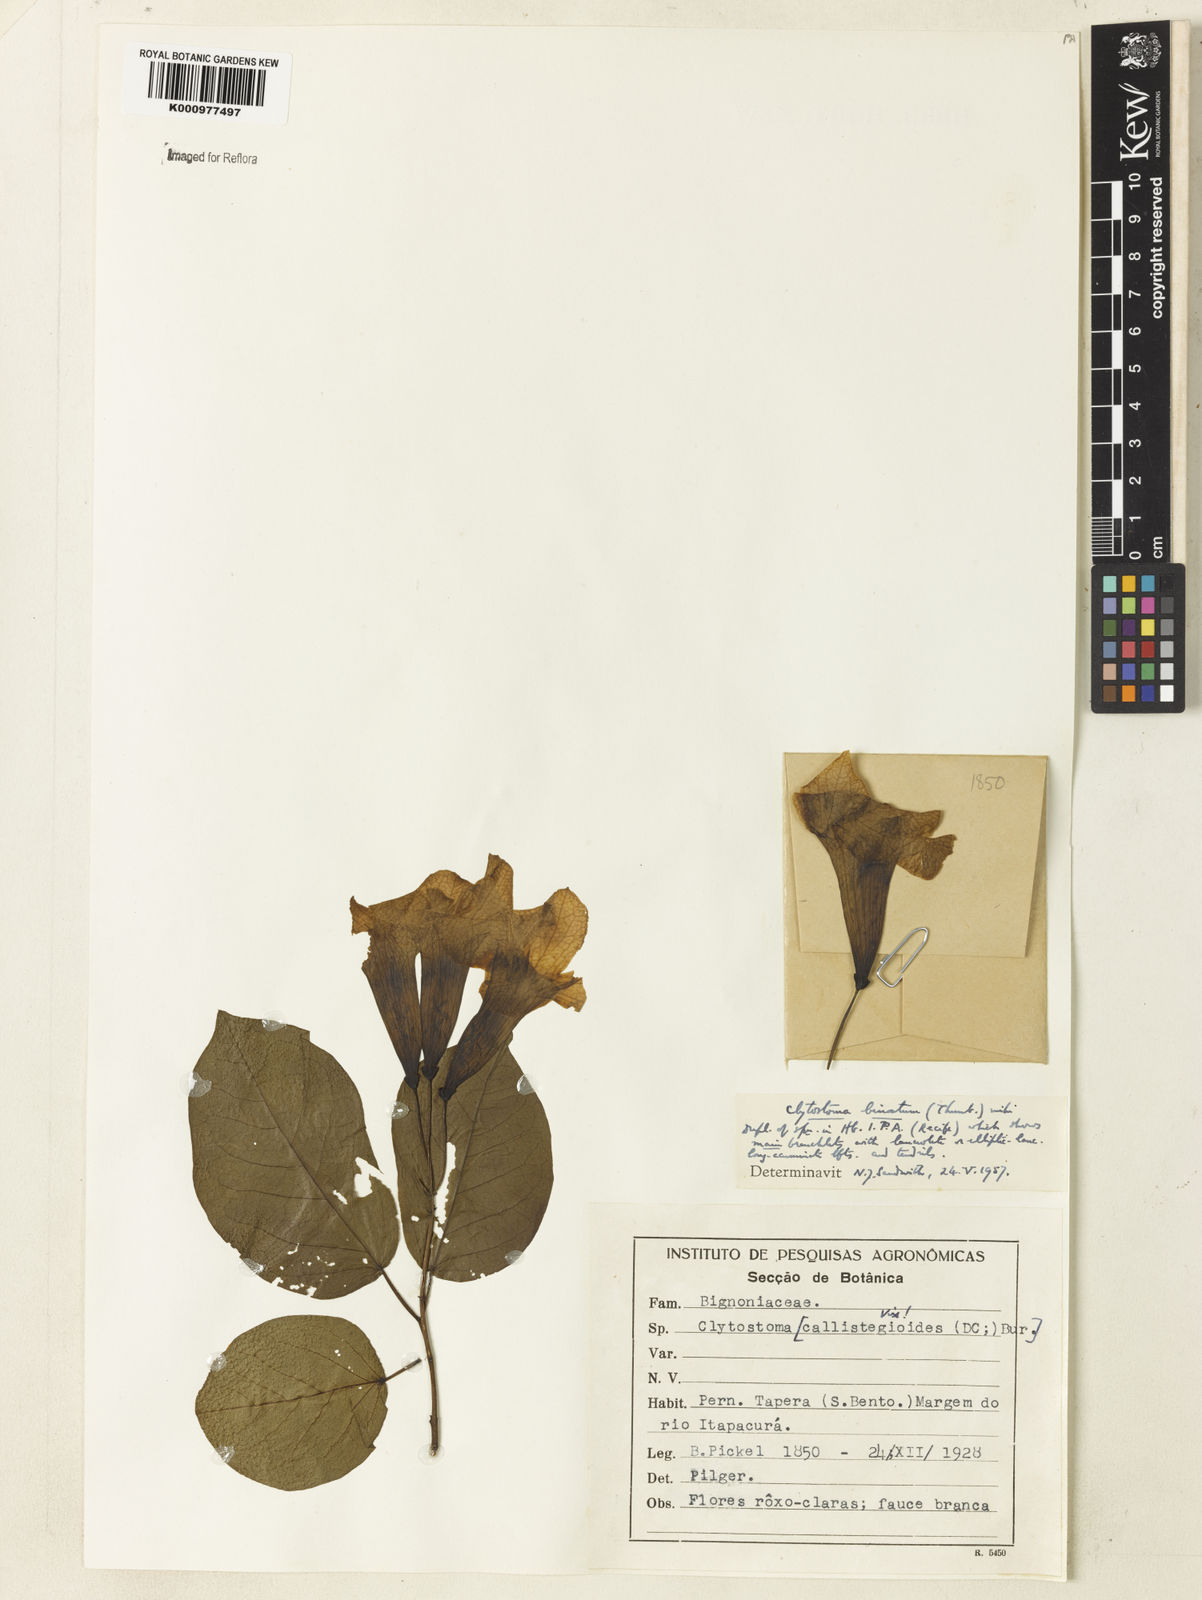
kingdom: Plantae
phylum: Tracheophyta
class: Magnoliopsida
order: Lamiales
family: Bignoniaceae
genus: Bignonia
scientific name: Bignonia binata
